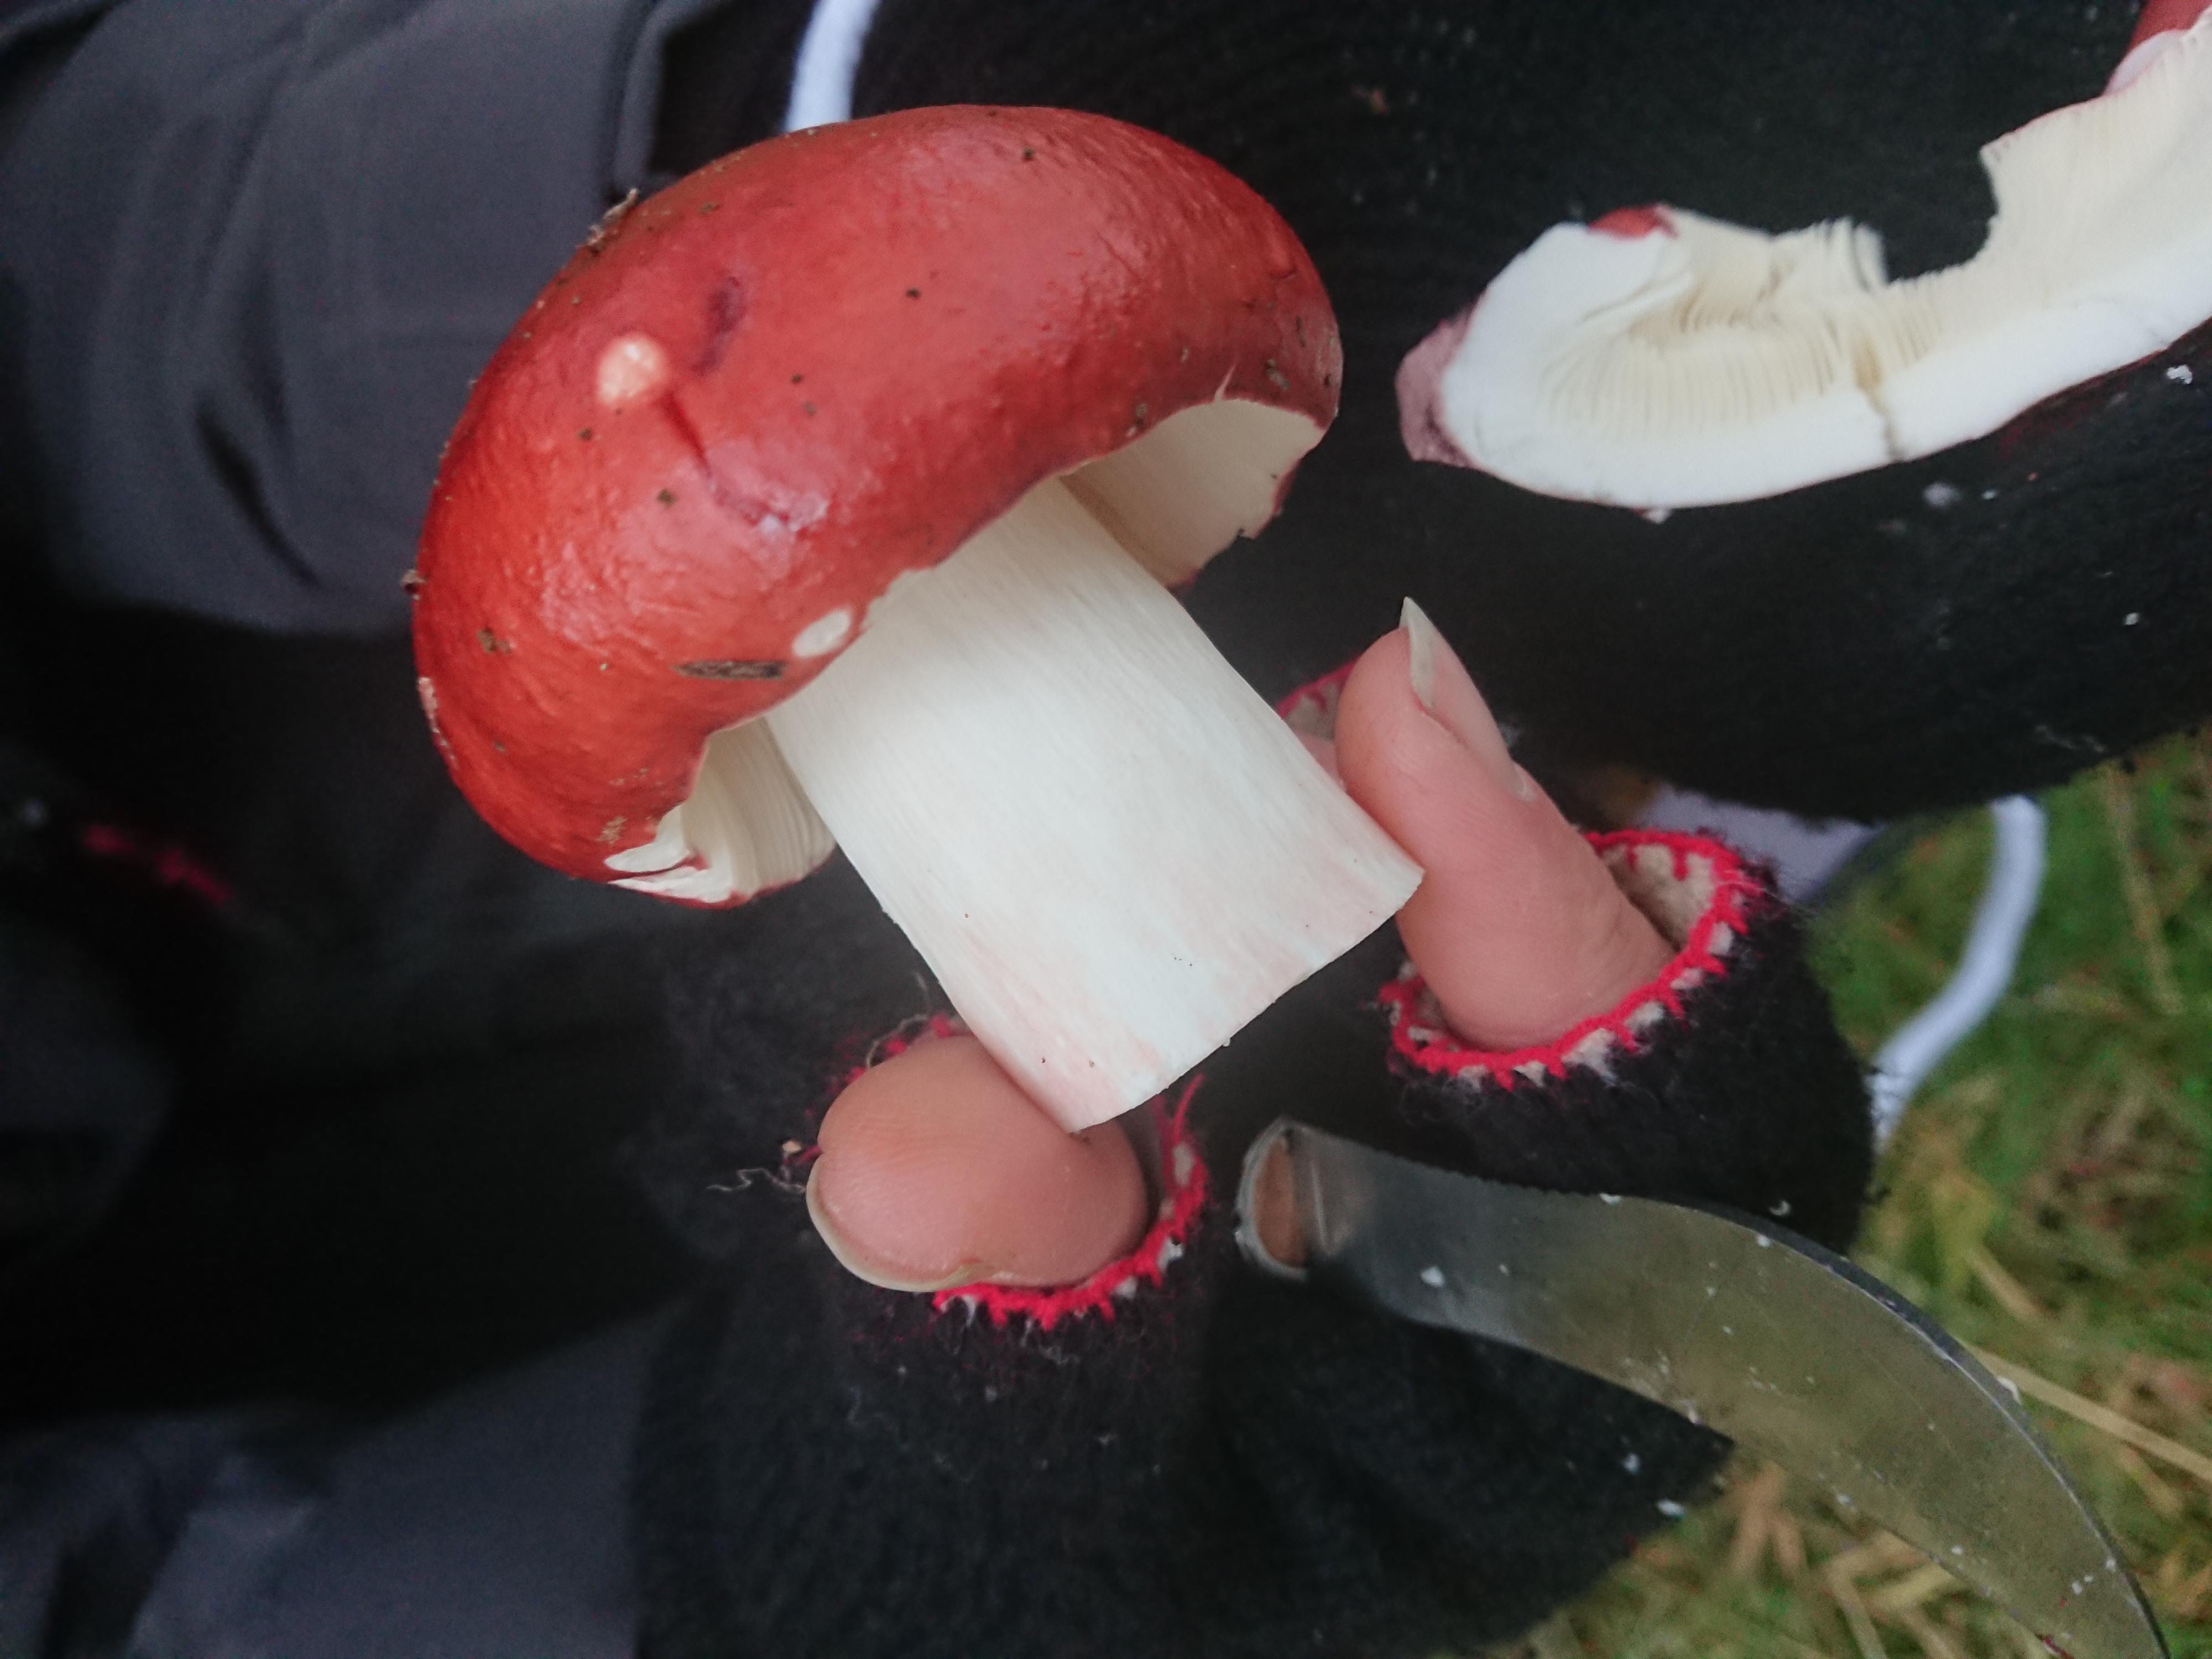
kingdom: Fungi
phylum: Basidiomycota
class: Agaricomycetes
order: Russulales
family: Russulaceae
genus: Russula
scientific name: Russula paludosa
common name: prægtig skørhat
